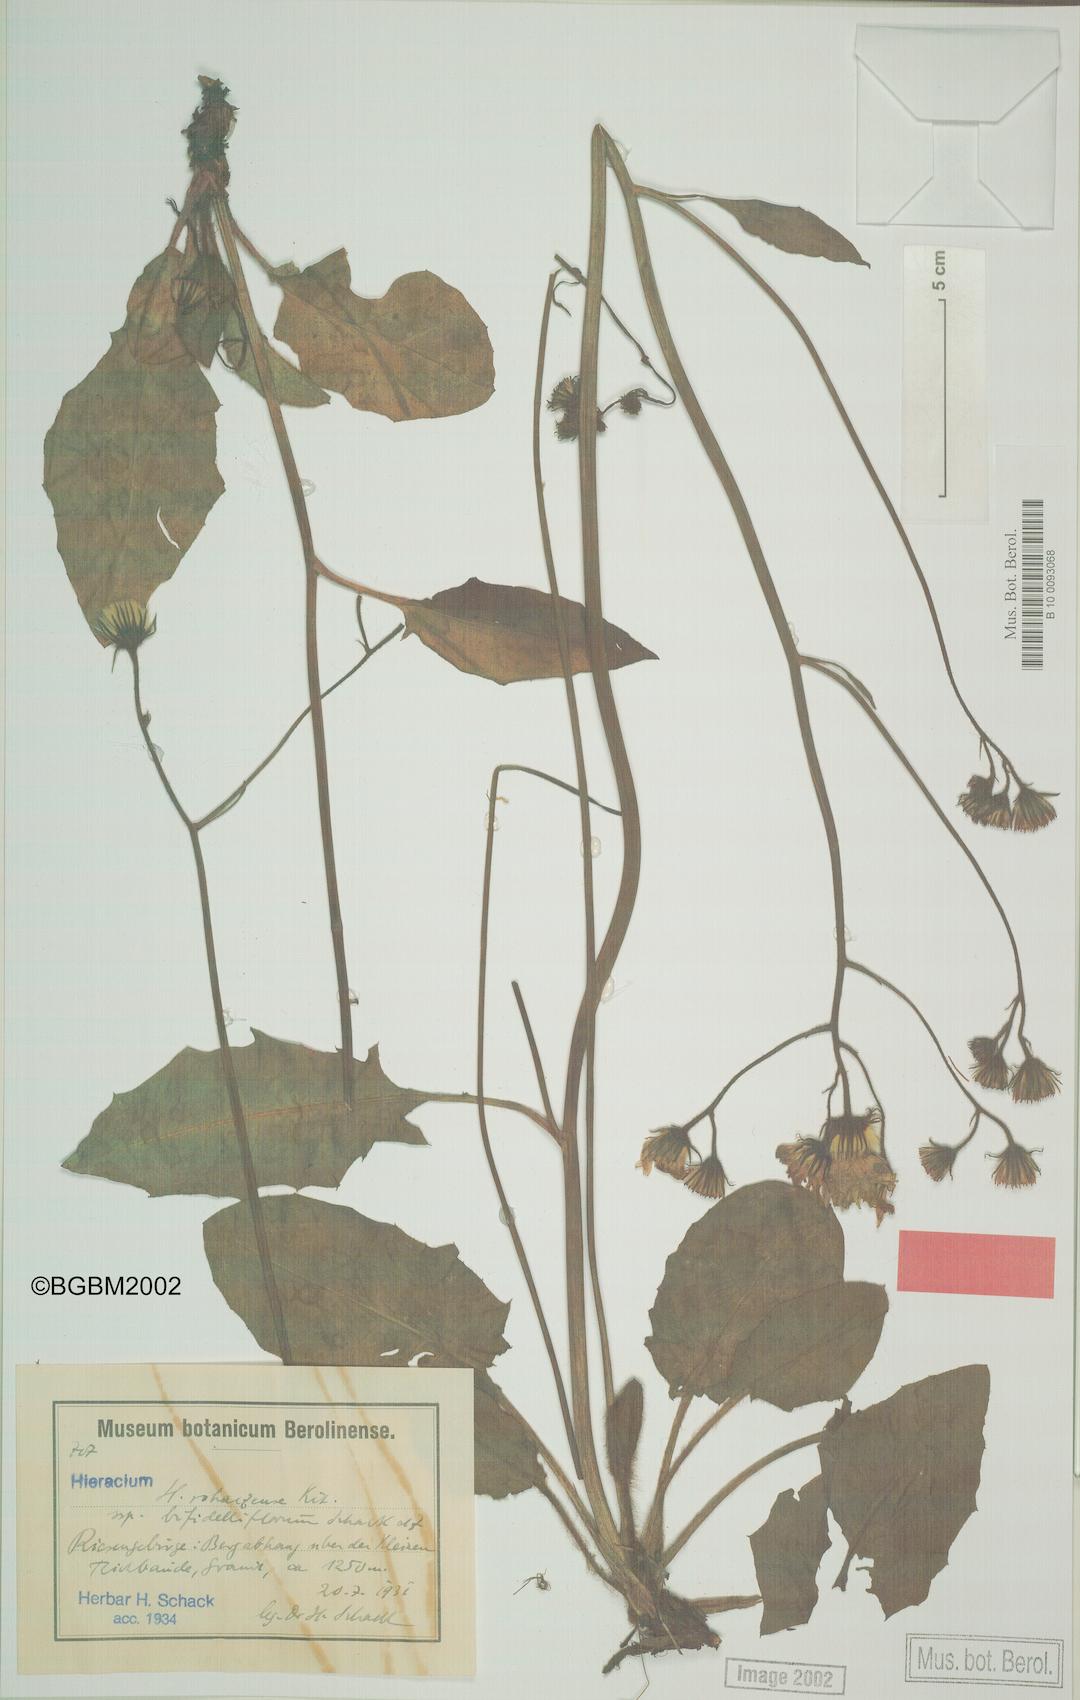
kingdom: Plantae
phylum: Tracheophyta
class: Magnoliopsida
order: Asterales
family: Asteraceae
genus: Hieracium
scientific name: Hieracium rohacsense
